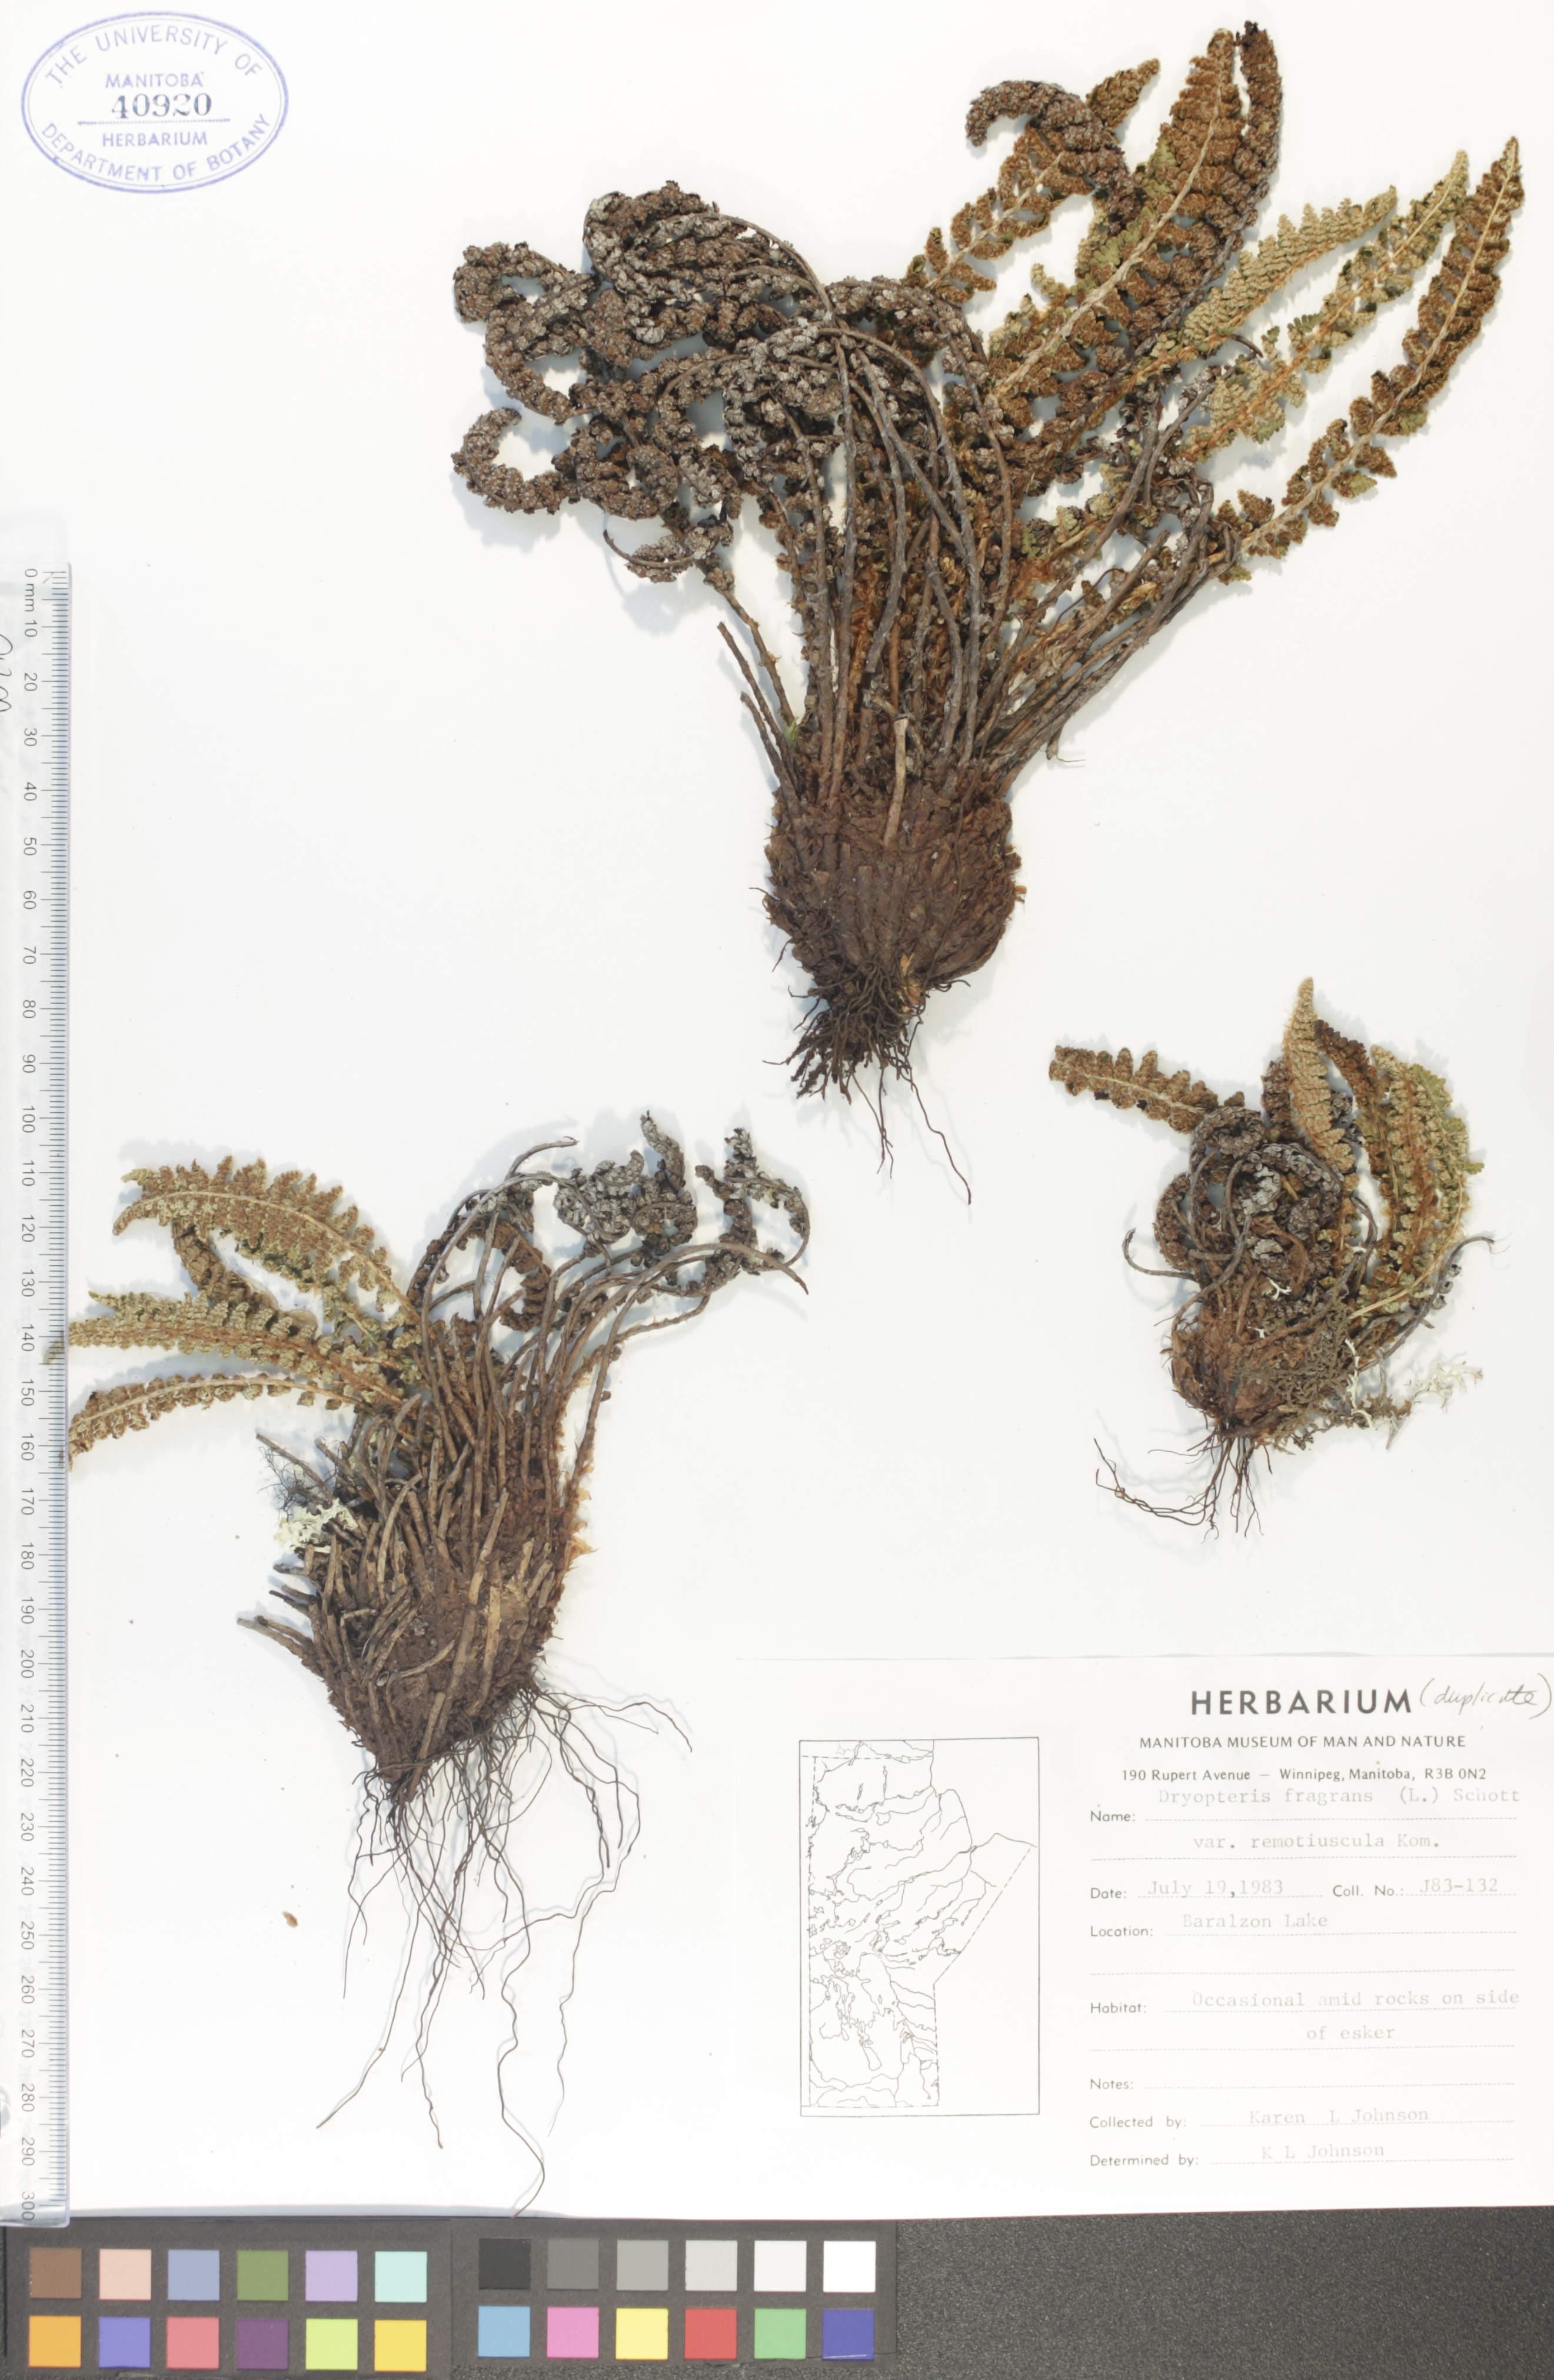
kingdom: Plantae
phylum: Tracheophyta
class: Polypodiopsida
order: Polypodiales
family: Dryopteridaceae
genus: Dryopteris
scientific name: Dryopteris fragrans
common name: Fragrant wood fern
